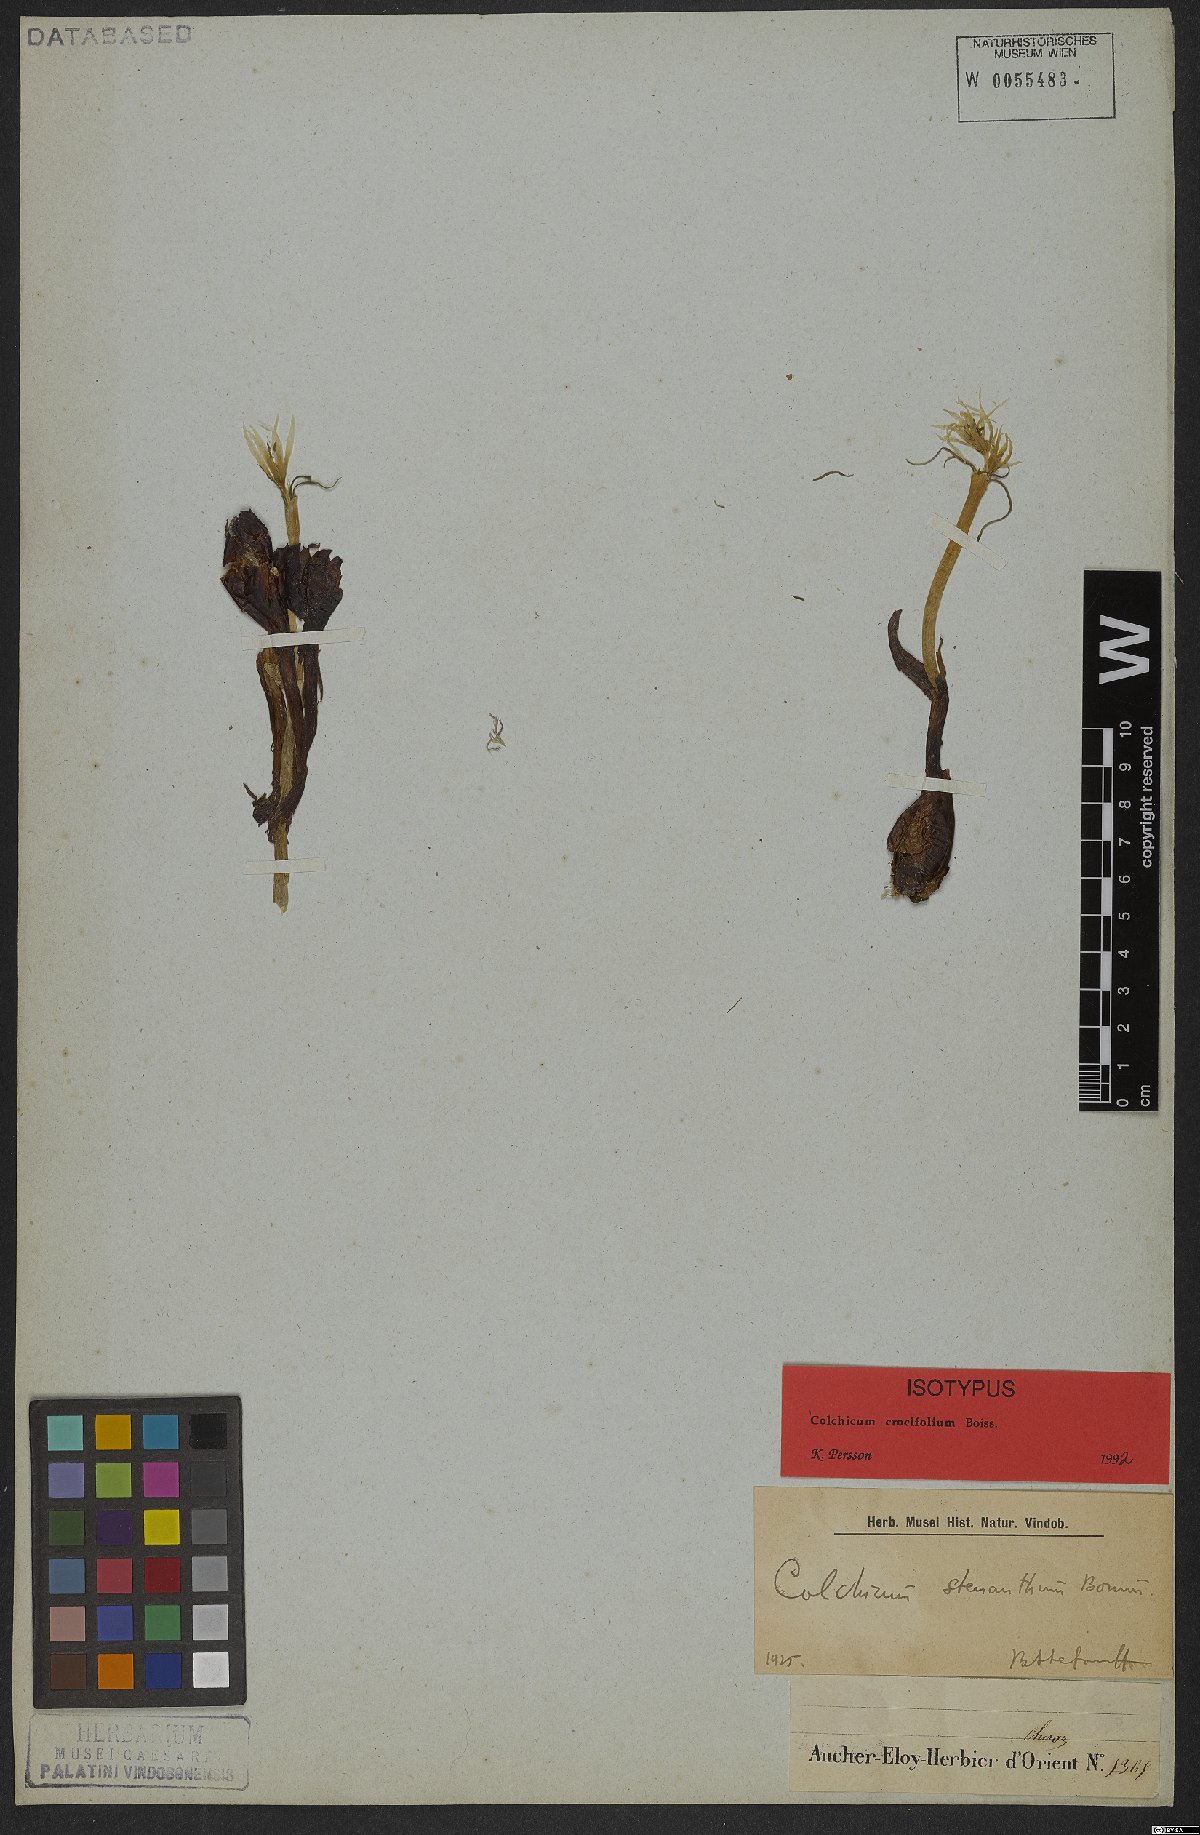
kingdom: Plantae
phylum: Tracheophyta
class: Liliopsida
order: Liliales
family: Colchicaceae
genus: Colchicum
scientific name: Colchicum crocifolium
